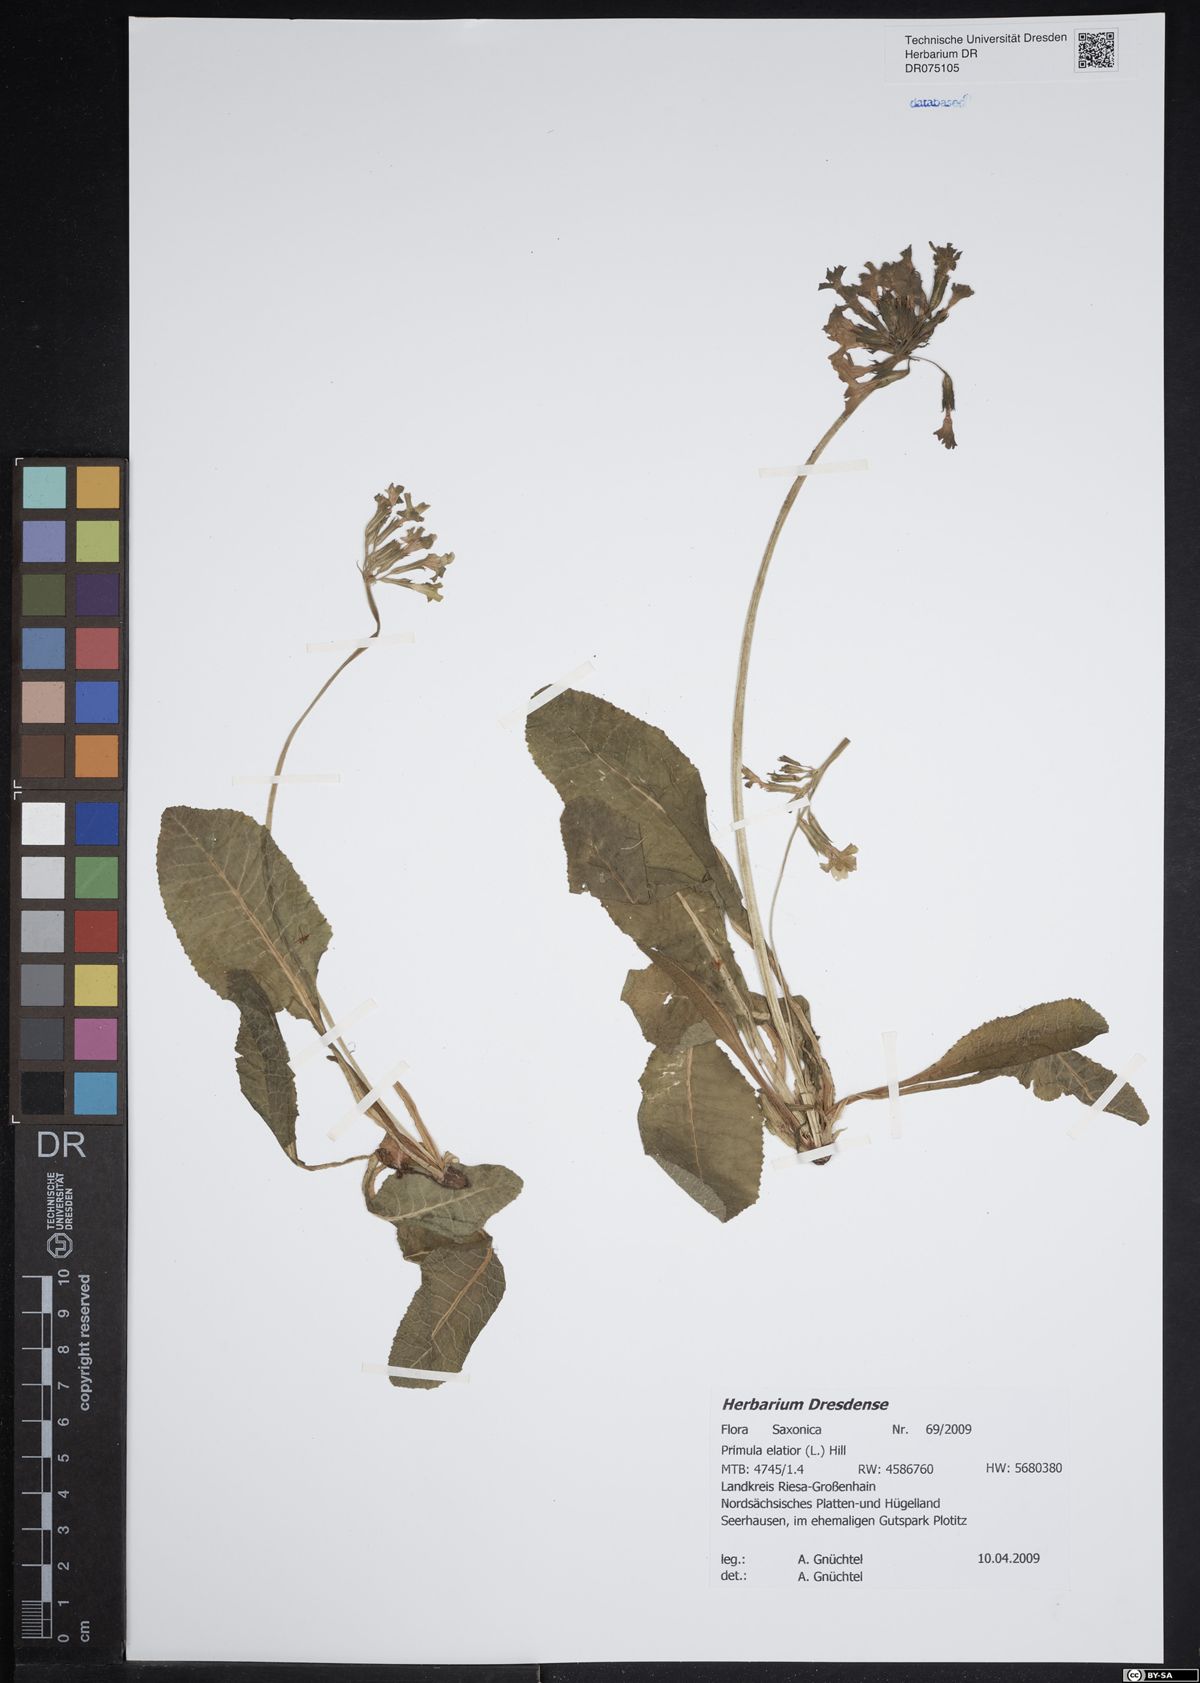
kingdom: Plantae
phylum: Tracheophyta
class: Magnoliopsida
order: Ericales
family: Primulaceae
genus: Primula
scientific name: Primula elatior
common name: Oxlip
